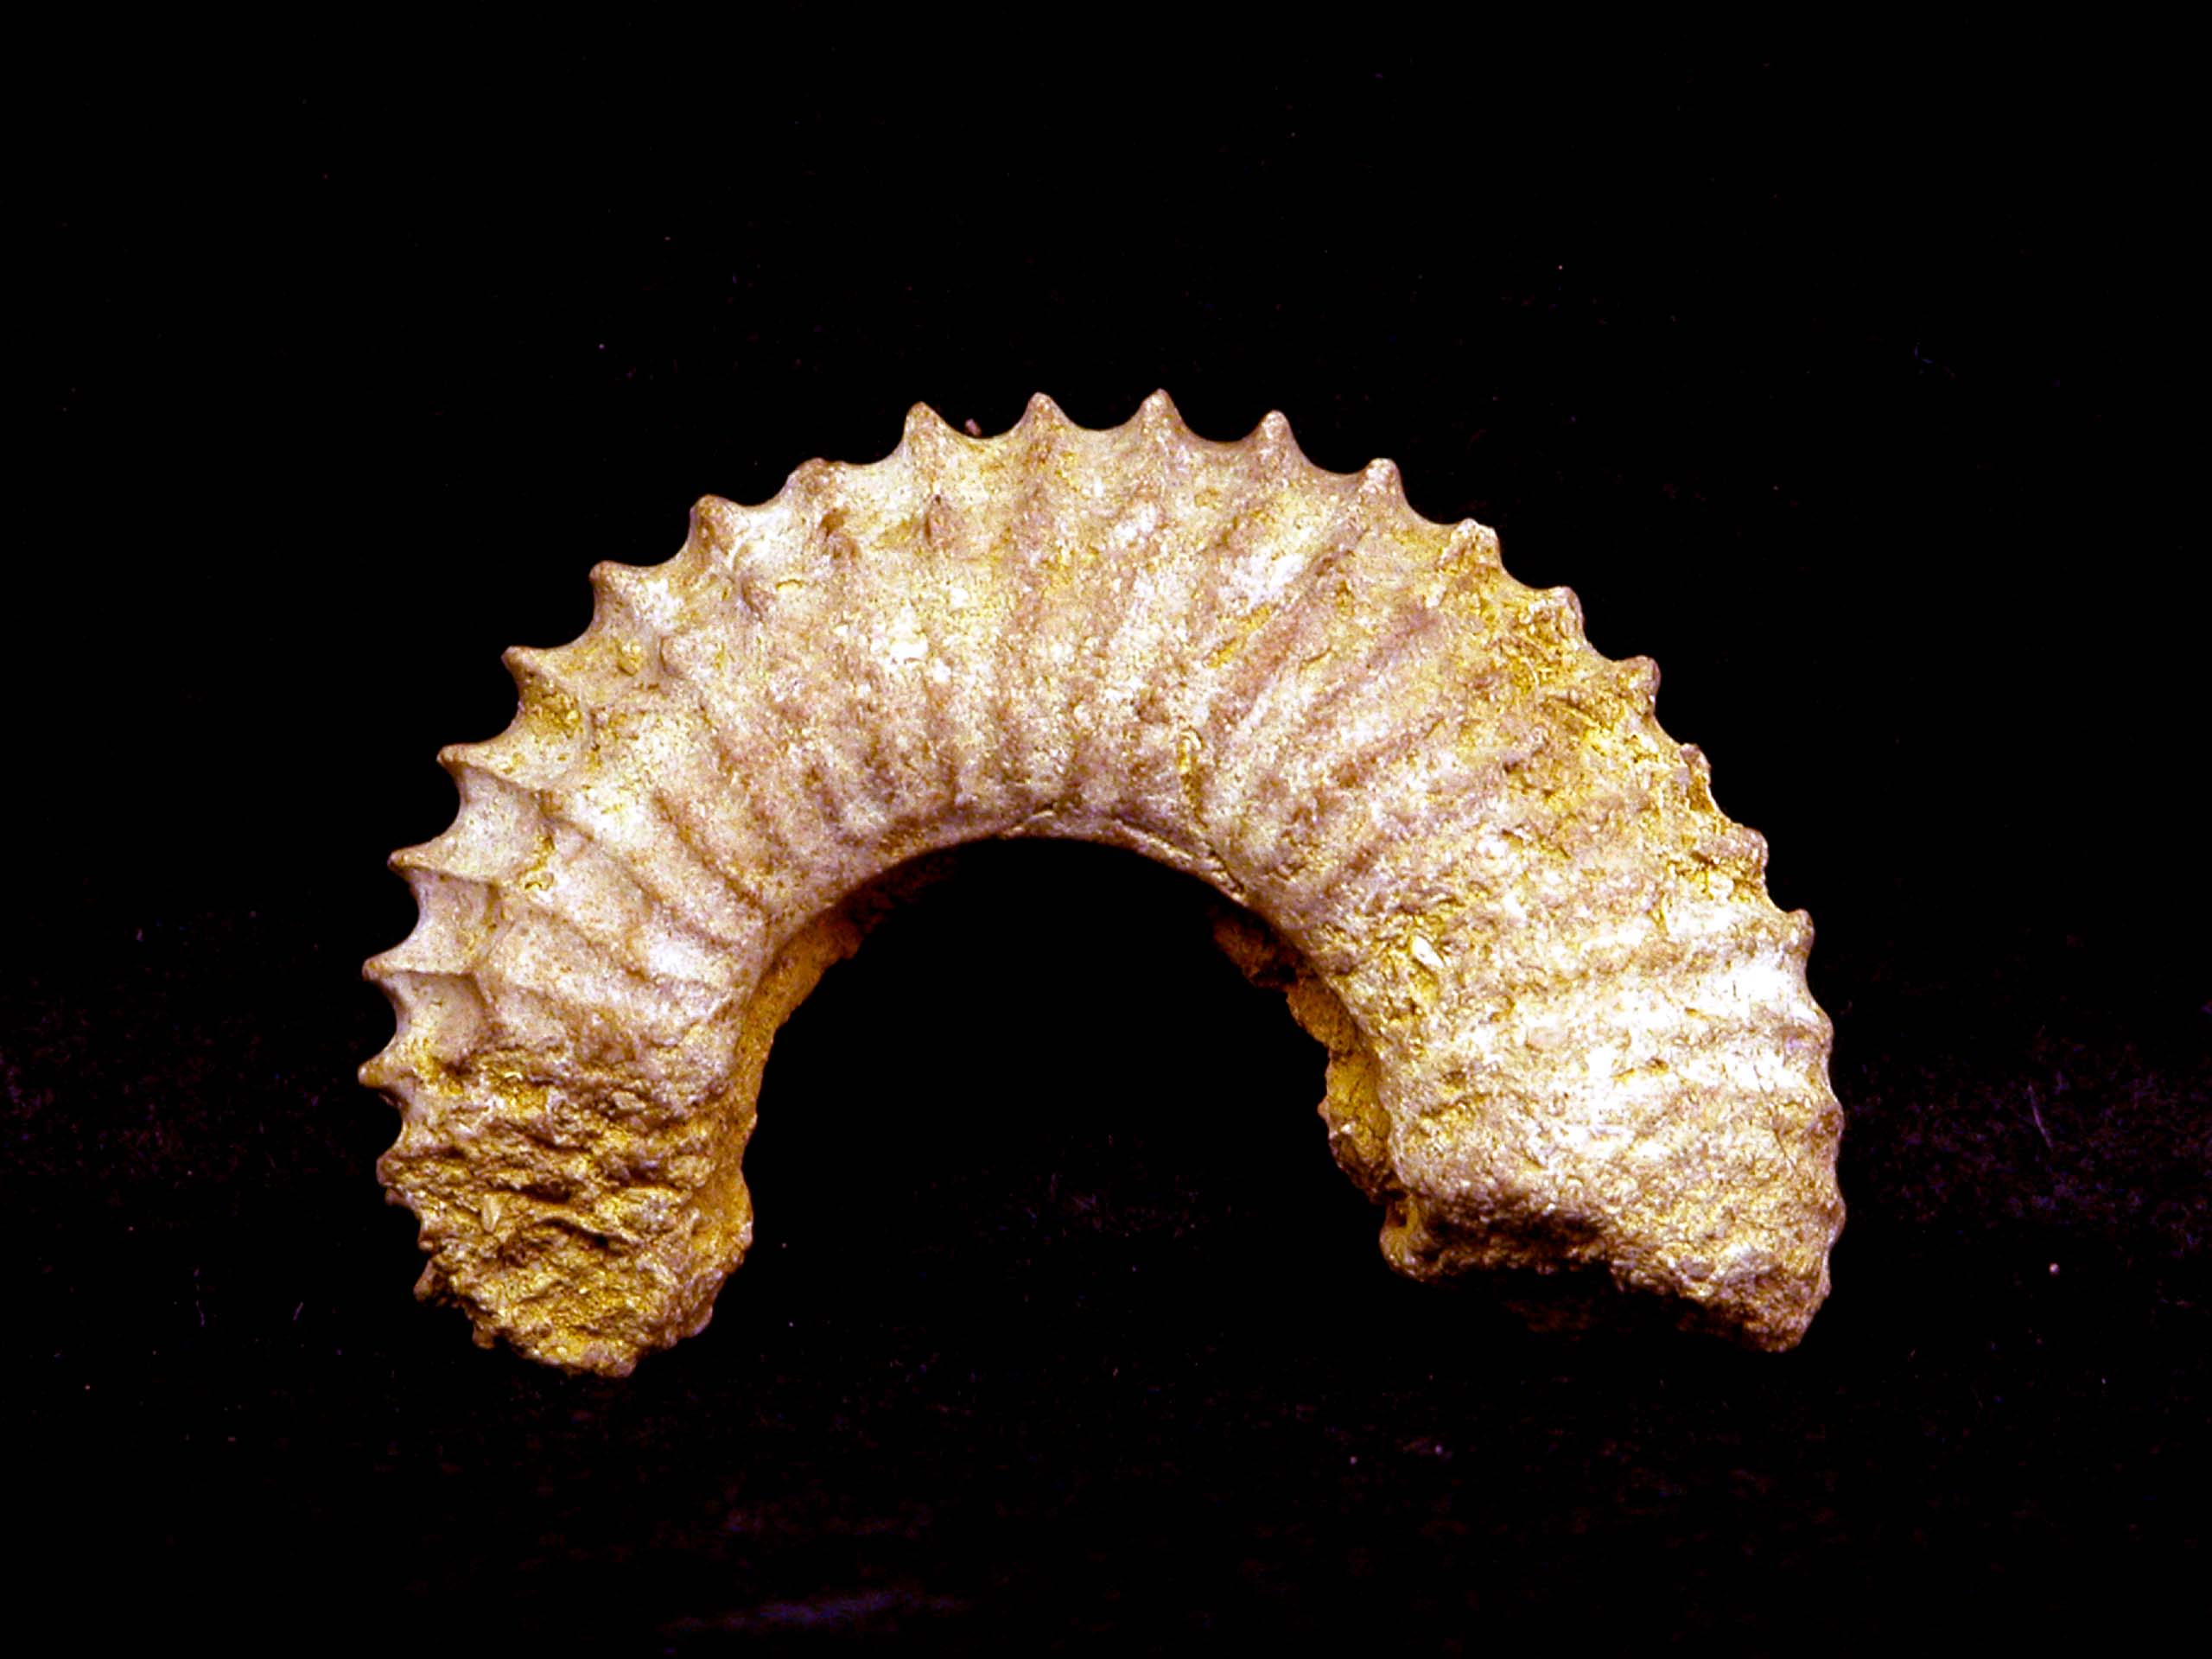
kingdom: Animalia
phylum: Mollusca
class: Cephalopoda
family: Parkinsoniidae
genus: Strenoceras
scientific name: Strenoceras
